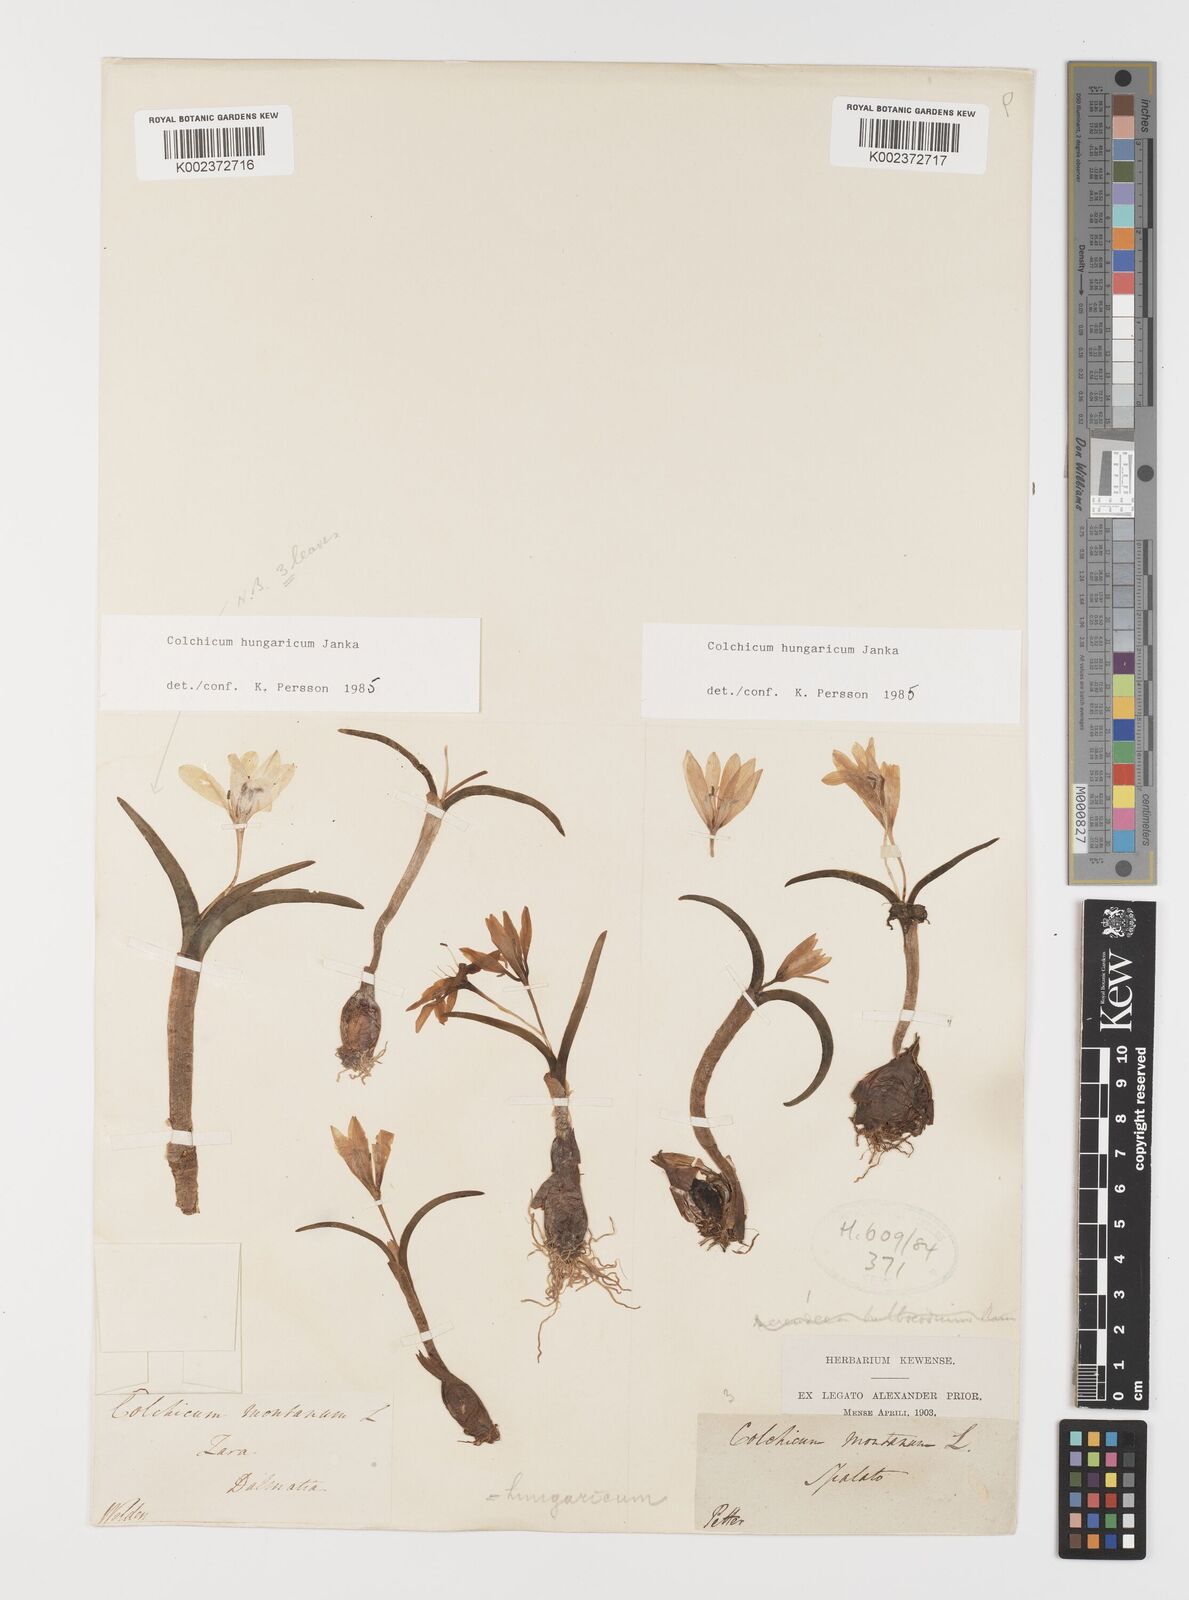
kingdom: Plantae
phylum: Tracheophyta
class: Liliopsida
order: Liliales
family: Colchicaceae
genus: Colchicum
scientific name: Colchicum hungaricum
